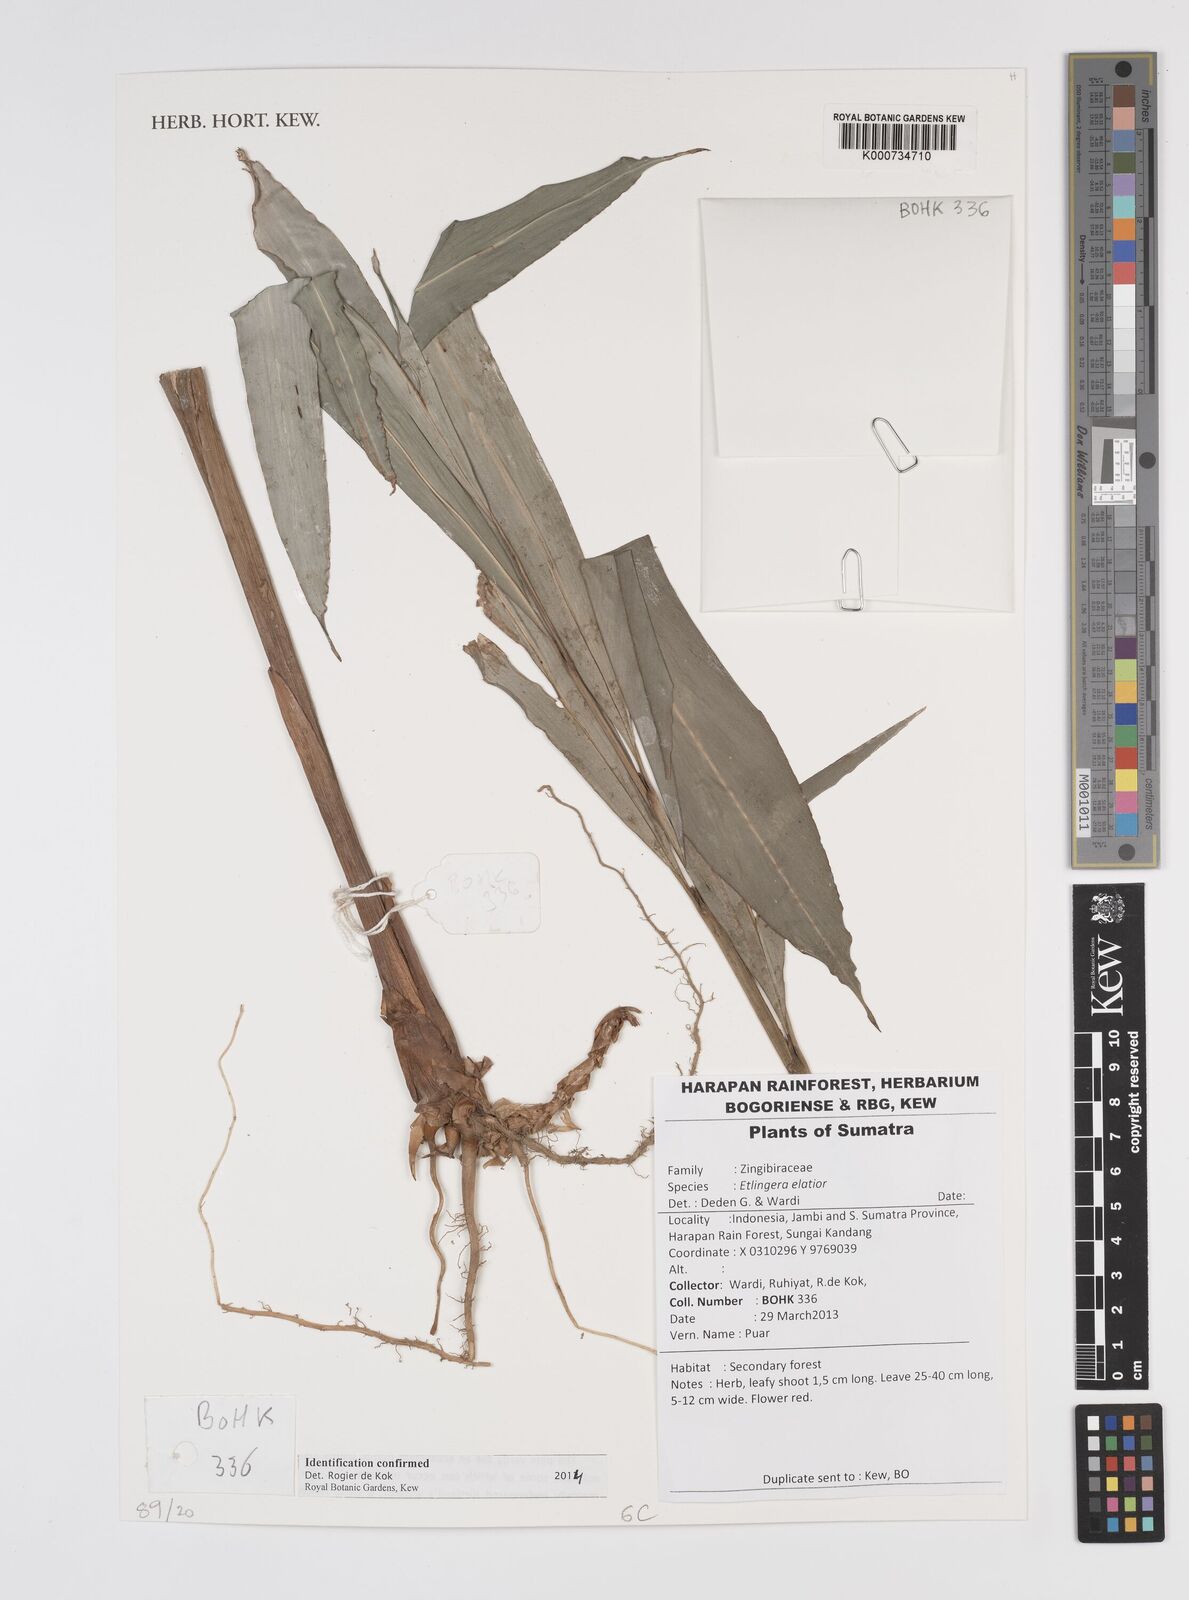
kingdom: Plantae
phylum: Tracheophyta
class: Liliopsida
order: Zingiberales
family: Zingiberaceae
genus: Etlingera
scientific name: Etlingera elatior
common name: Philippine waxflower
